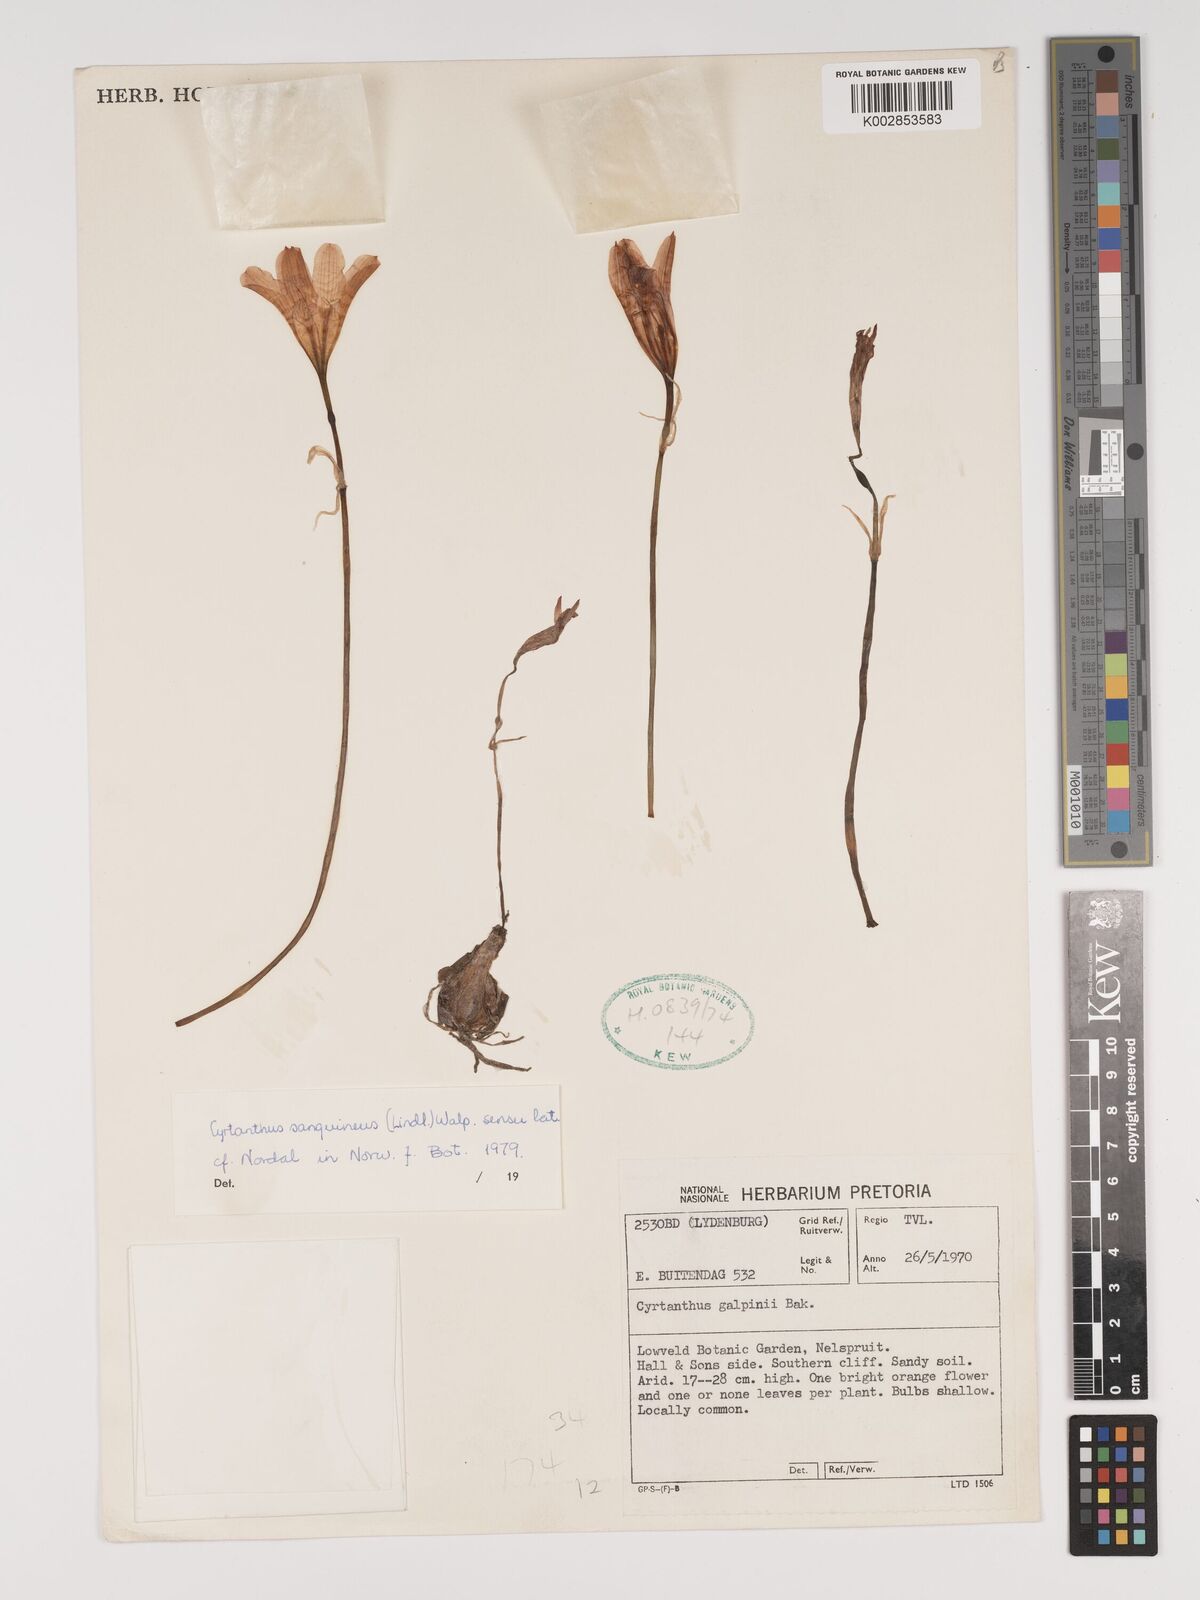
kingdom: Plantae
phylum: Tracheophyta
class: Liliopsida
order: Asparagales
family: Amaryllidaceae
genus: Cyrtanthus
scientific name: Cyrtanthus sanguineus
